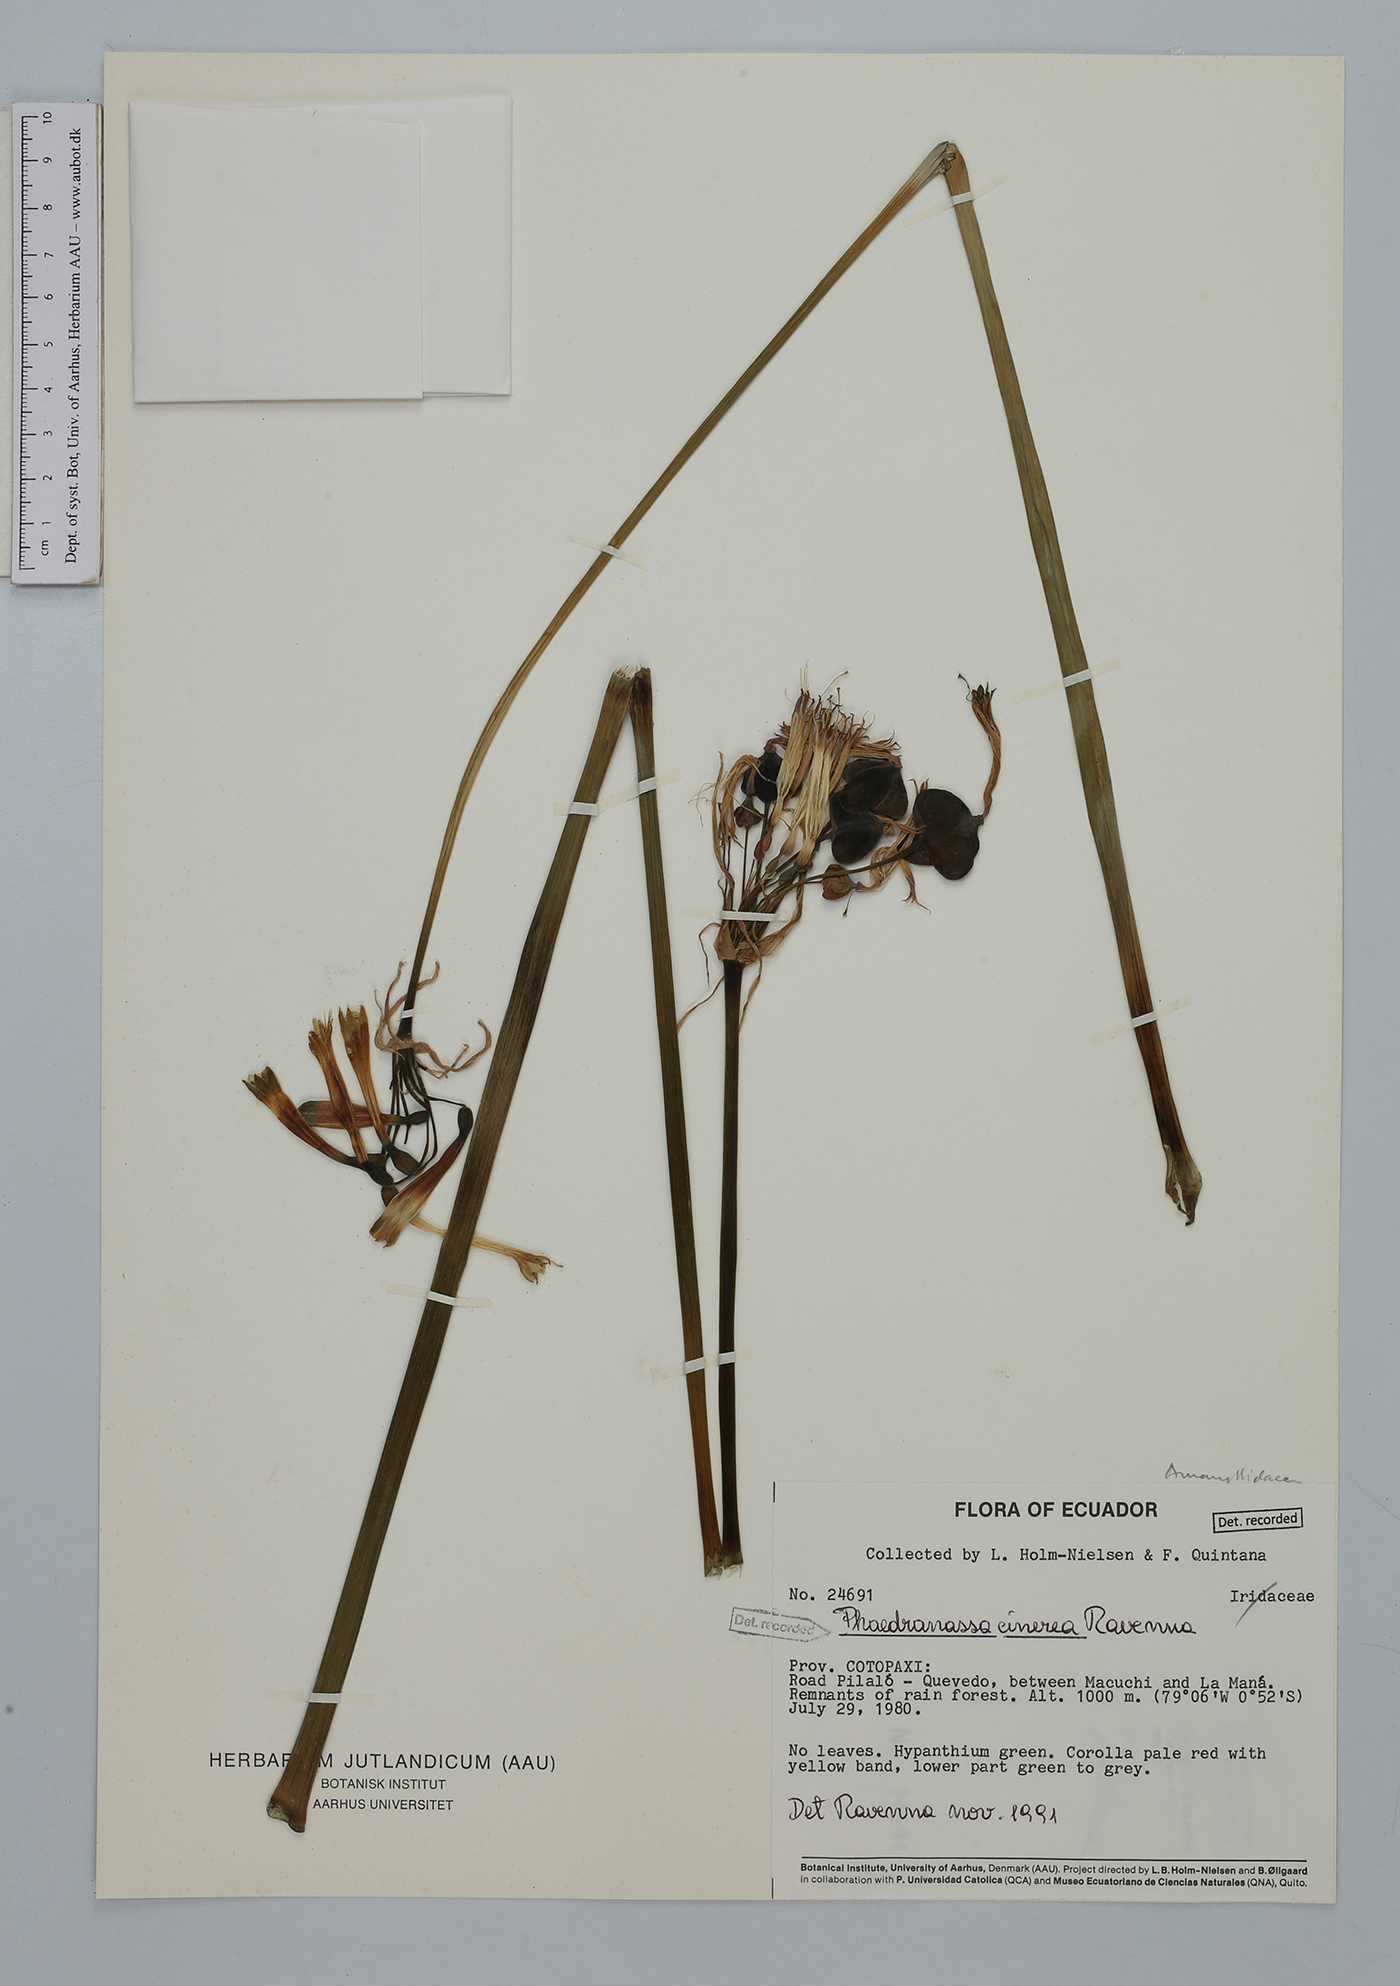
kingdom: Plantae
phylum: Tracheophyta
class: Liliopsida
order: Asparagales
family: Amaryllidaceae
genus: Phaedranassa
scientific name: Phaedranassa cinerea
